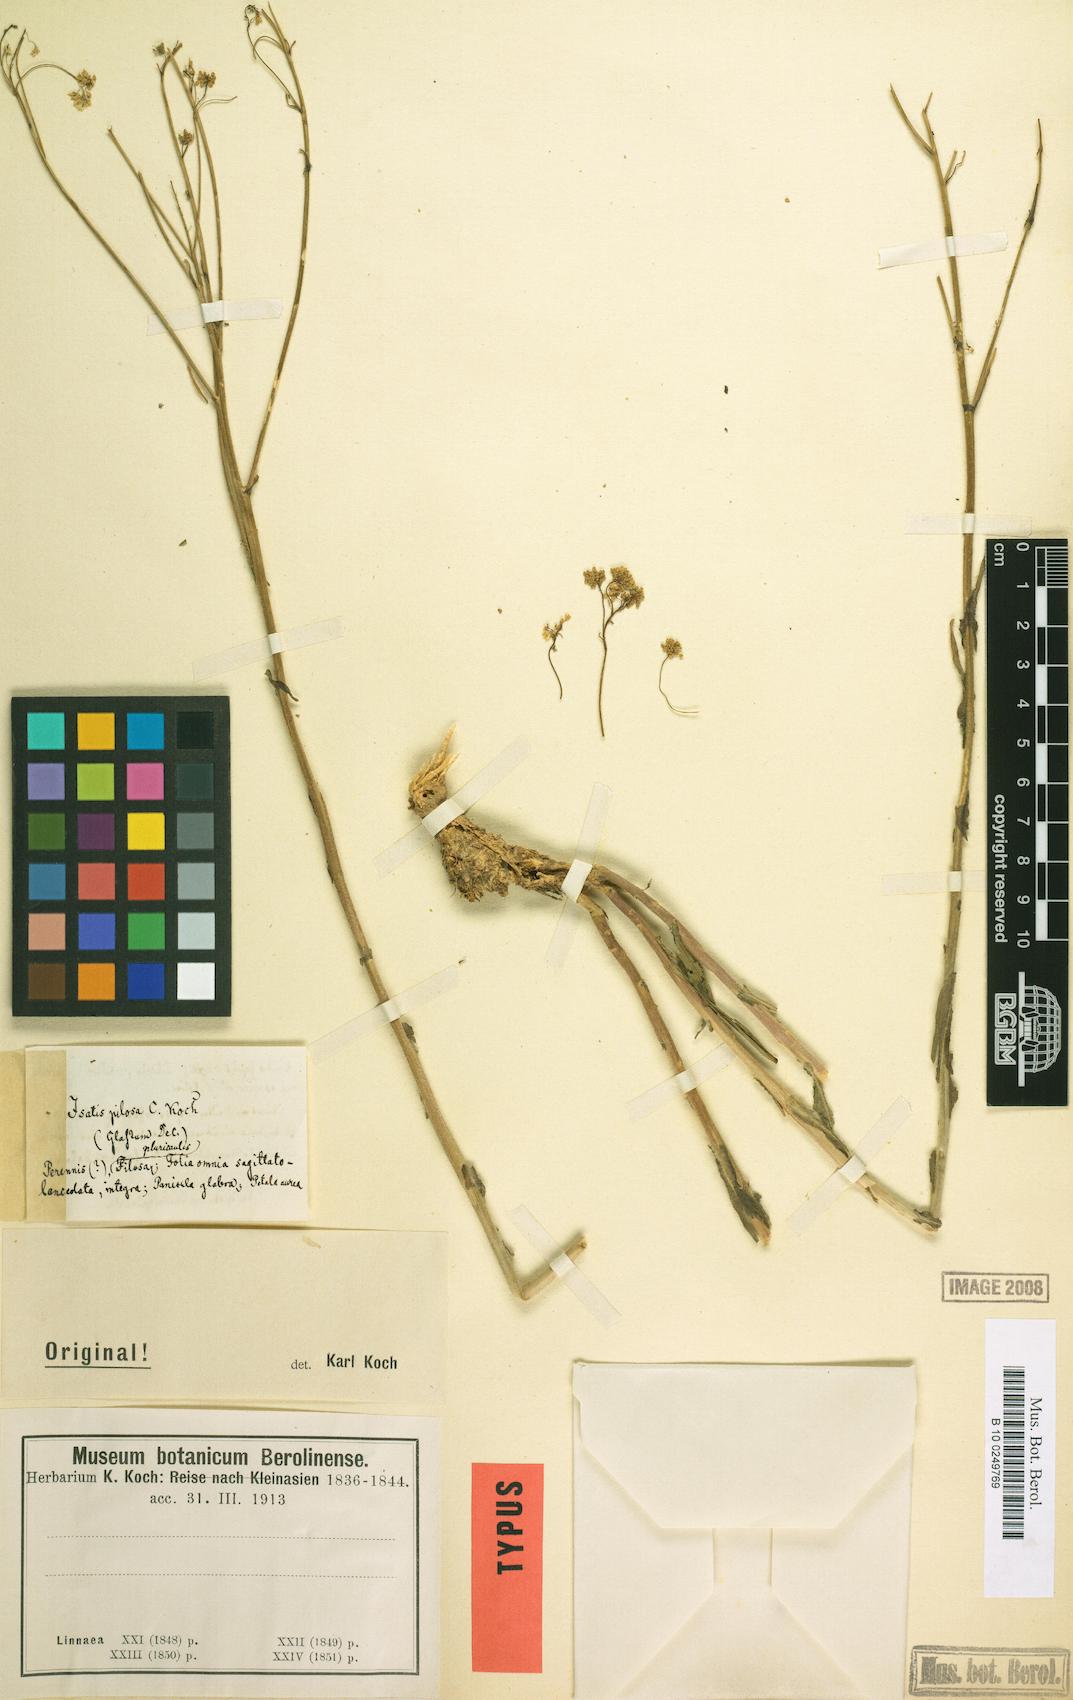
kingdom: Plantae
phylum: Tracheophyta
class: Magnoliopsida
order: Brassicales
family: Brassicaceae
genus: Isatis
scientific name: Isatis pilosa
